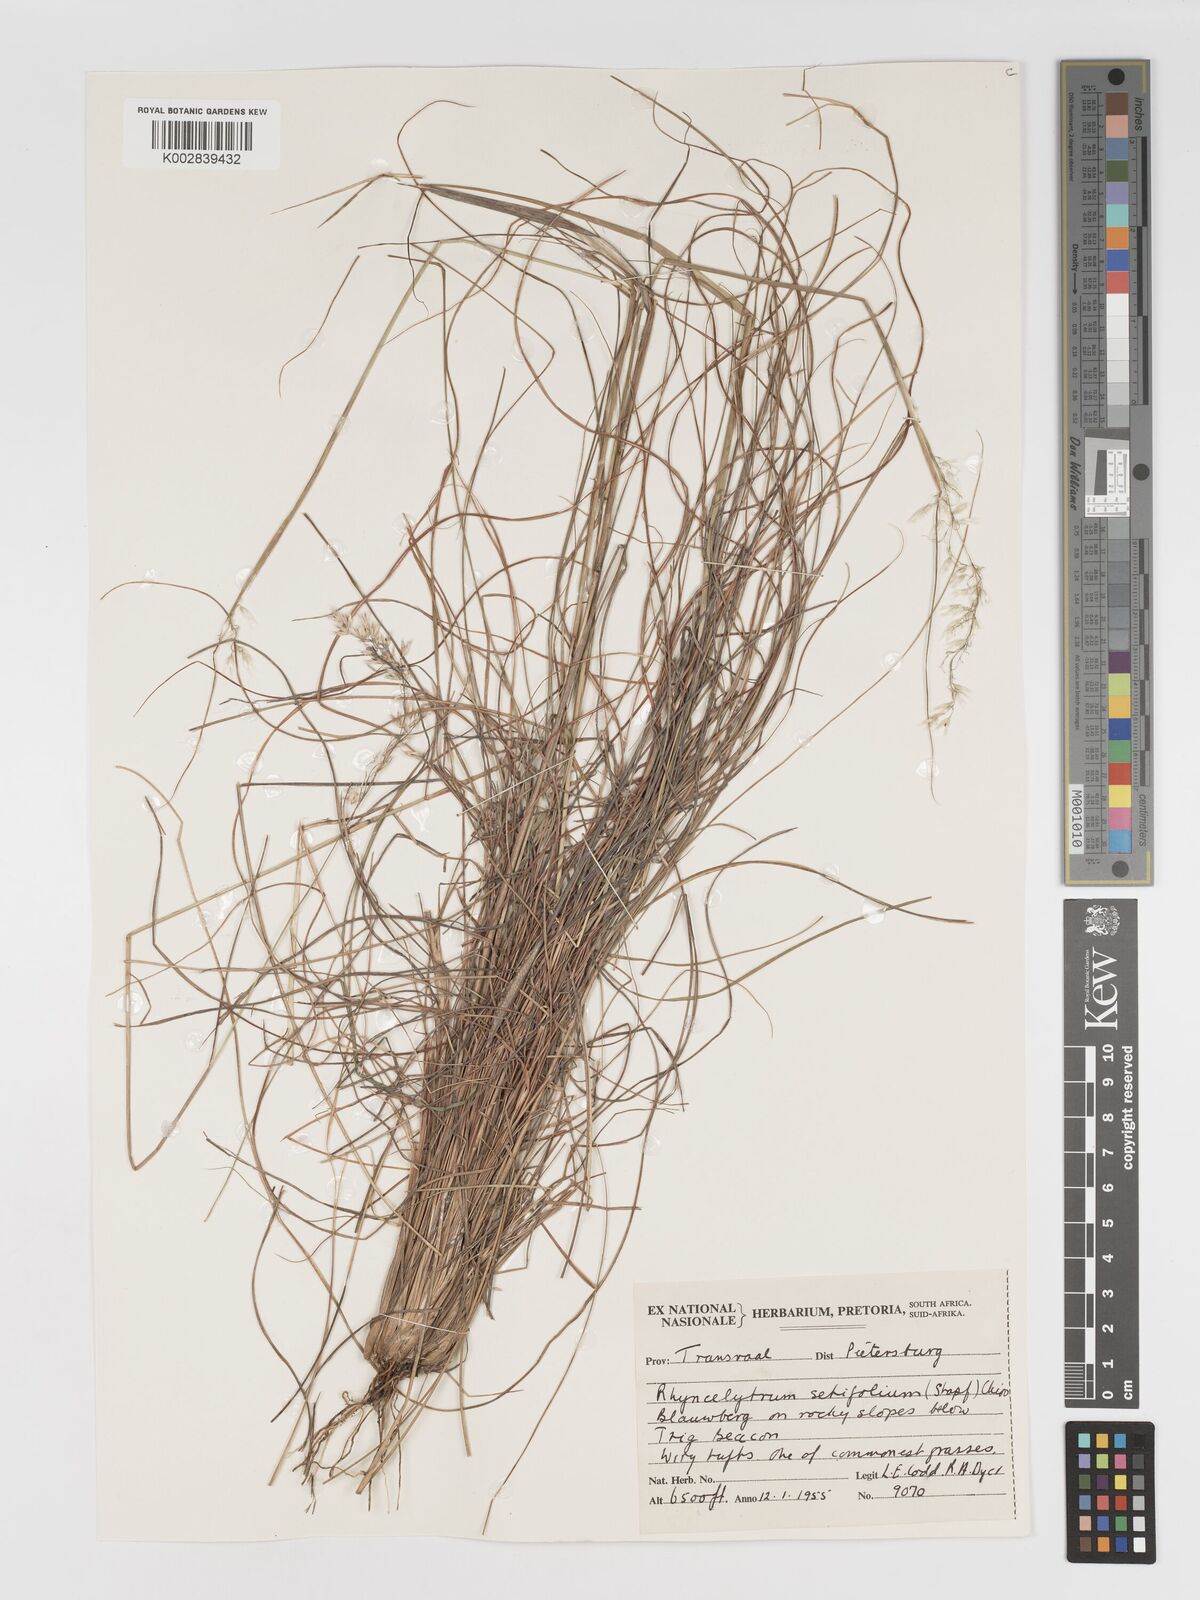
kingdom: Plantae
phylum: Tracheophyta
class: Liliopsida
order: Poales
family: Poaceae
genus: Melinis
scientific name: Melinis nerviglumis
